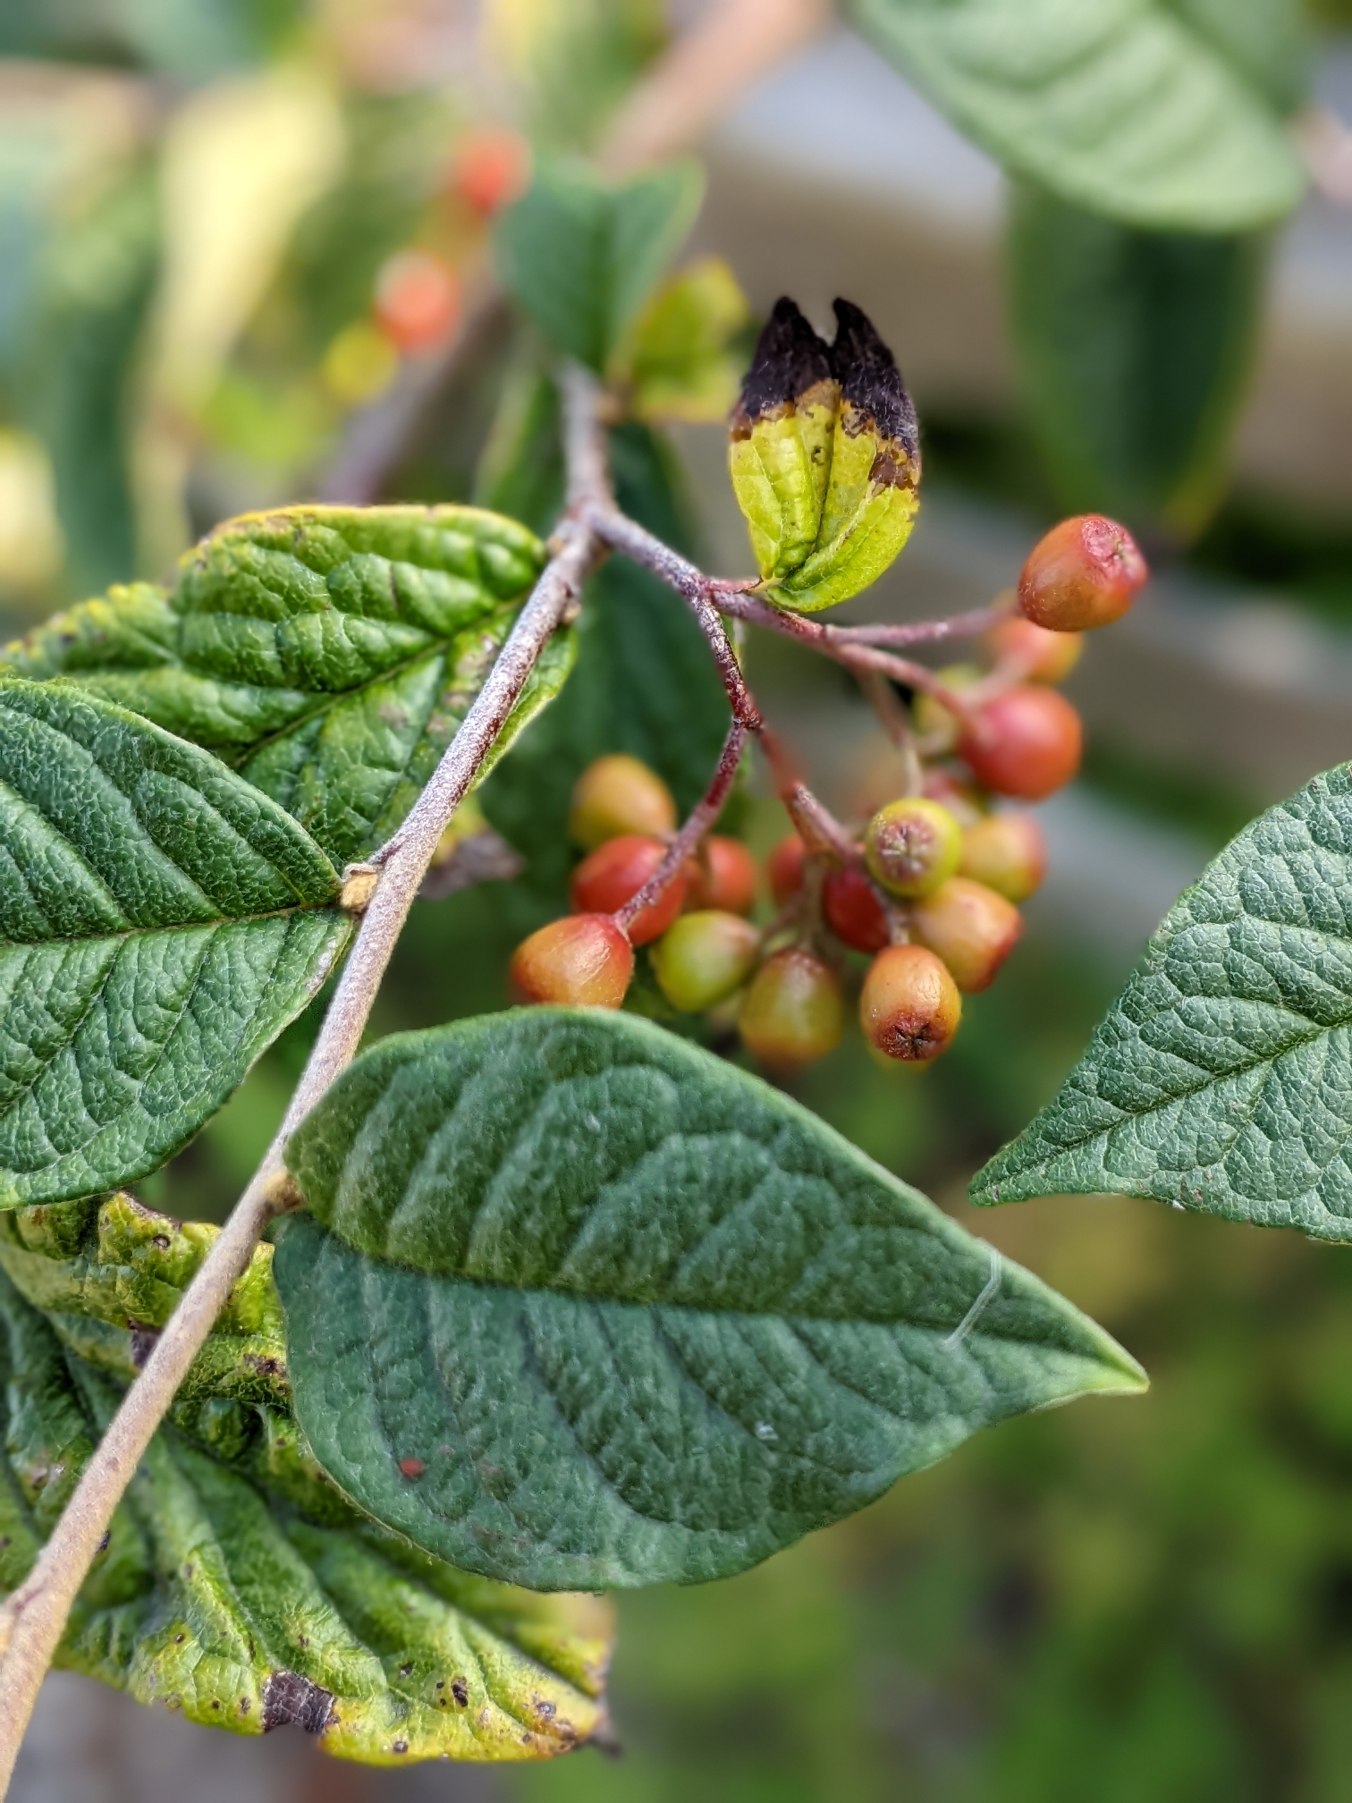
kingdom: Plantae
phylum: Tracheophyta
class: Magnoliopsida
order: Rosales
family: Rosaceae
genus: Cotoneaster
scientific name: Cotoneaster bullatus
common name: Storbladet dværgmispel
